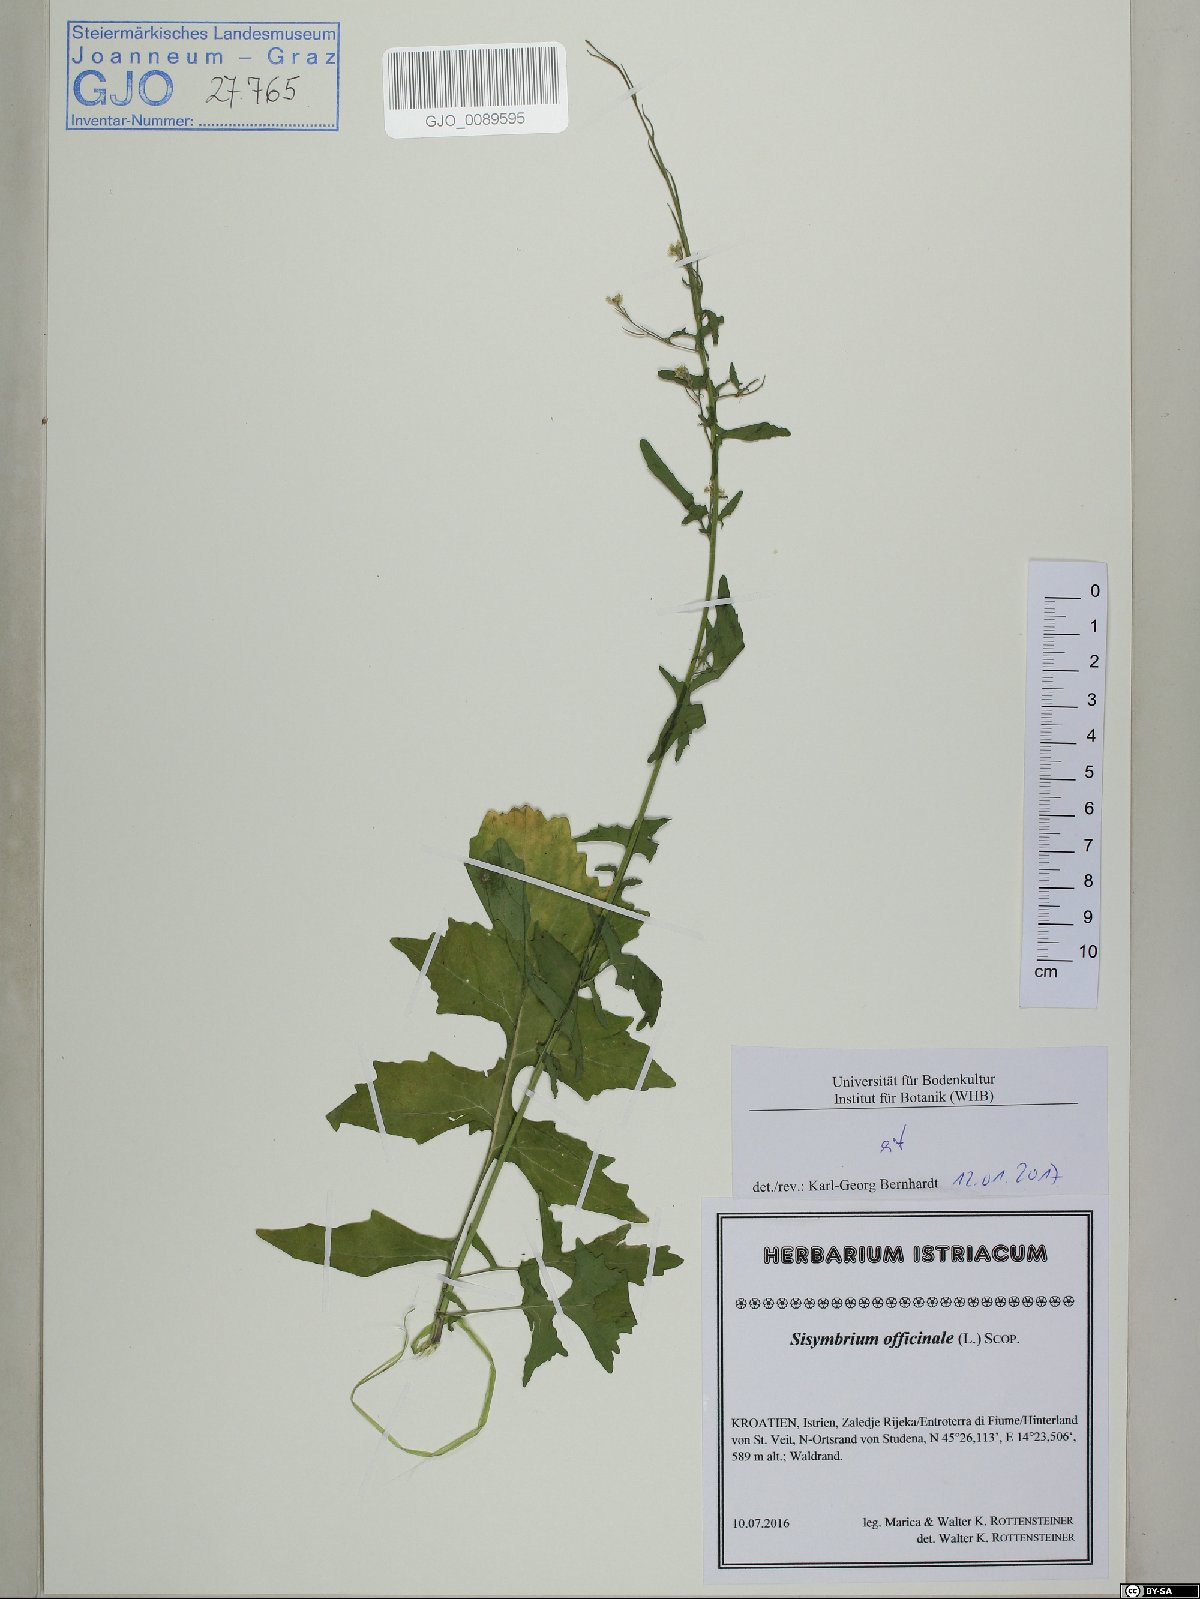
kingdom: Plantae
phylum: Tracheophyta
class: Magnoliopsida
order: Brassicales
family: Brassicaceae
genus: Sisymbrium
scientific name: Sisymbrium officinale
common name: Hedge mustard
